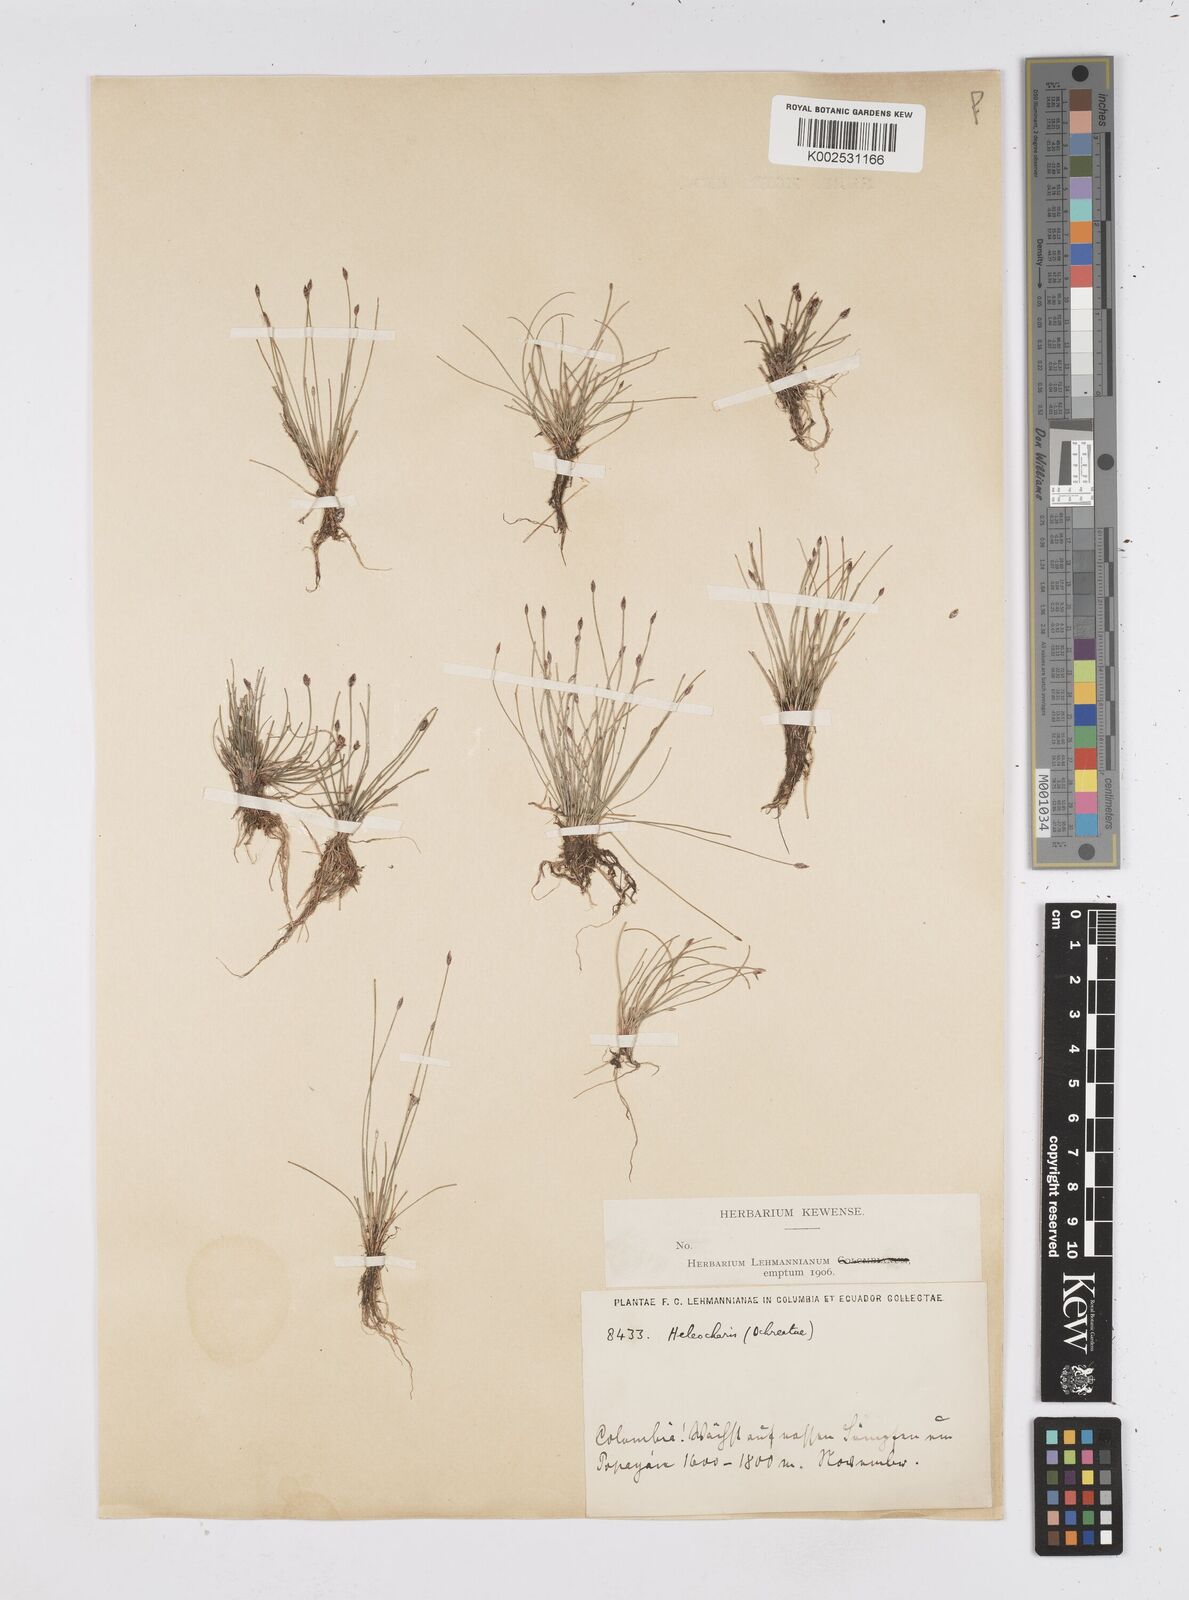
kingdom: Plantae
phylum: Tracheophyta
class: Liliopsida
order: Poales
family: Cyperaceae
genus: Eleocharis
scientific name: Eleocharis flavescens
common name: Yellow spikerush
